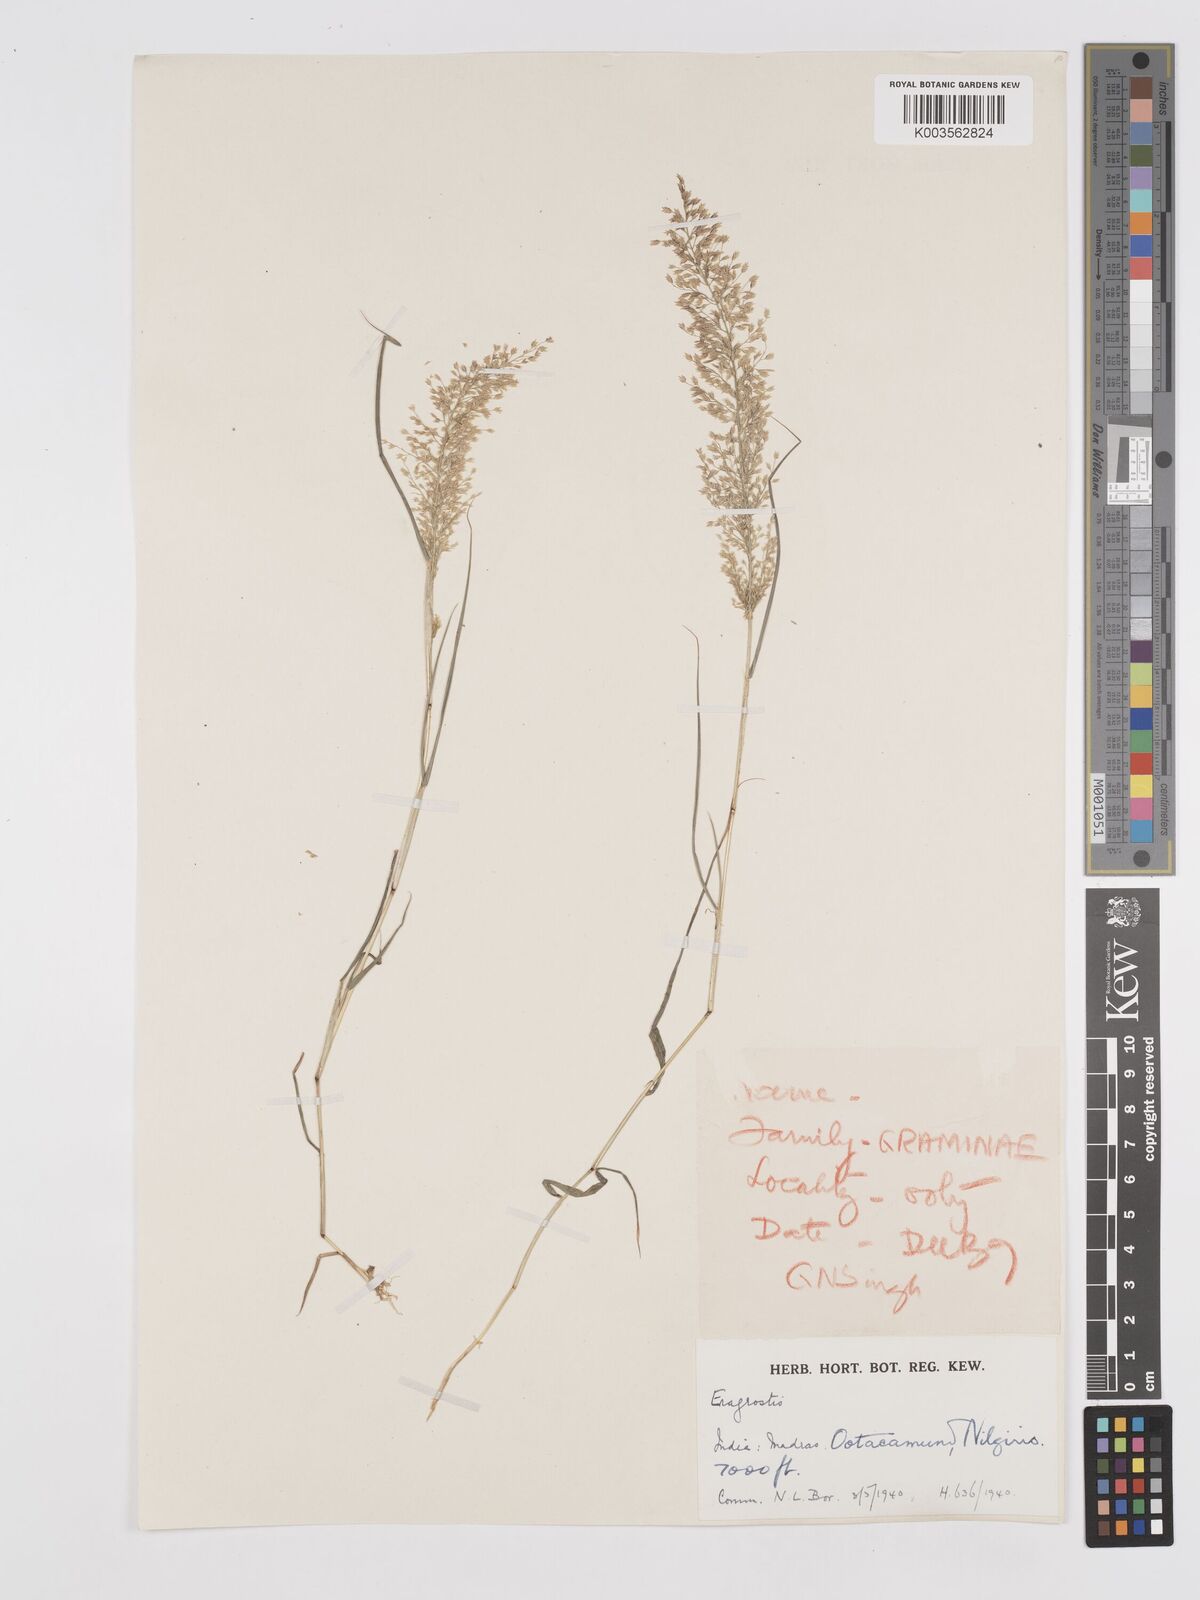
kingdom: Plantae
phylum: Tracheophyta
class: Liliopsida
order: Poales
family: Poaceae
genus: Eragrostis
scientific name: Eragrostis viscosa
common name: Sticky love grass
